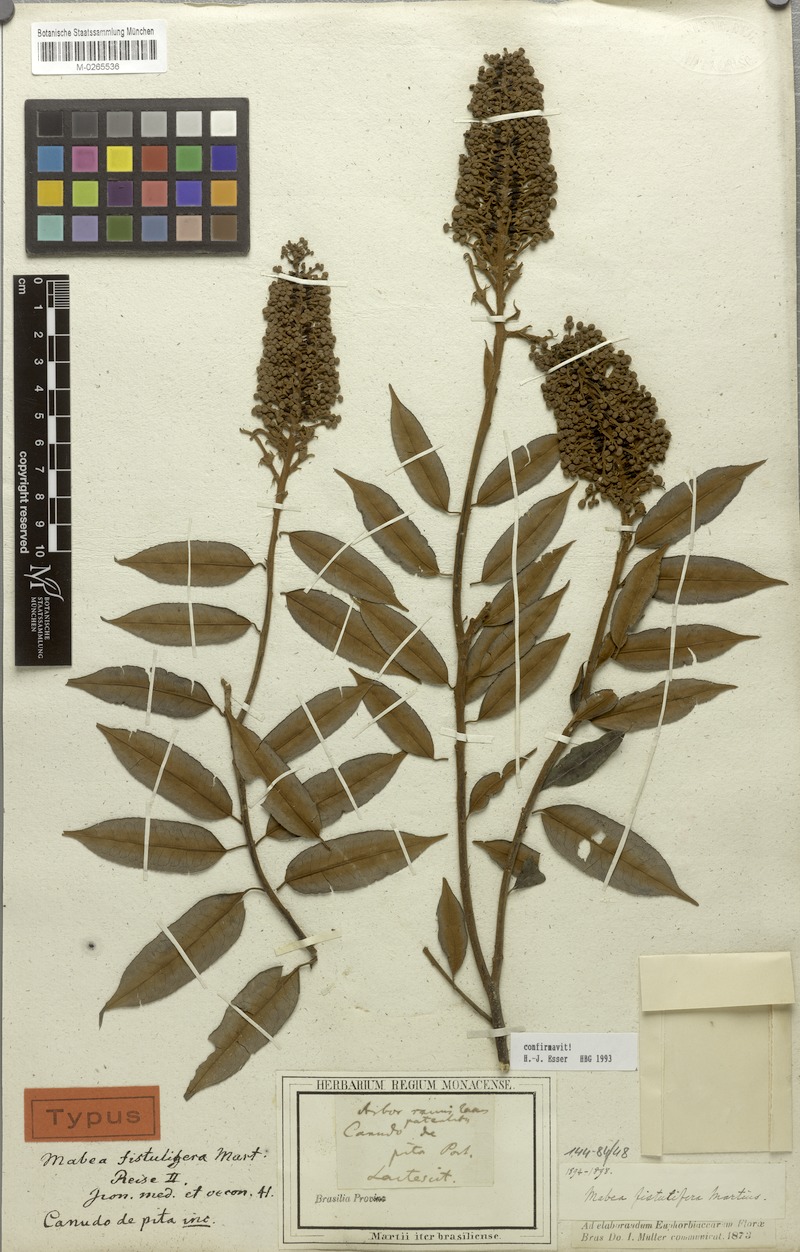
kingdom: Plantae
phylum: Tracheophyta
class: Magnoliopsida
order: Malpighiales
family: Euphorbiaceae
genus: Mabea
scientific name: Mabea fistulifera
